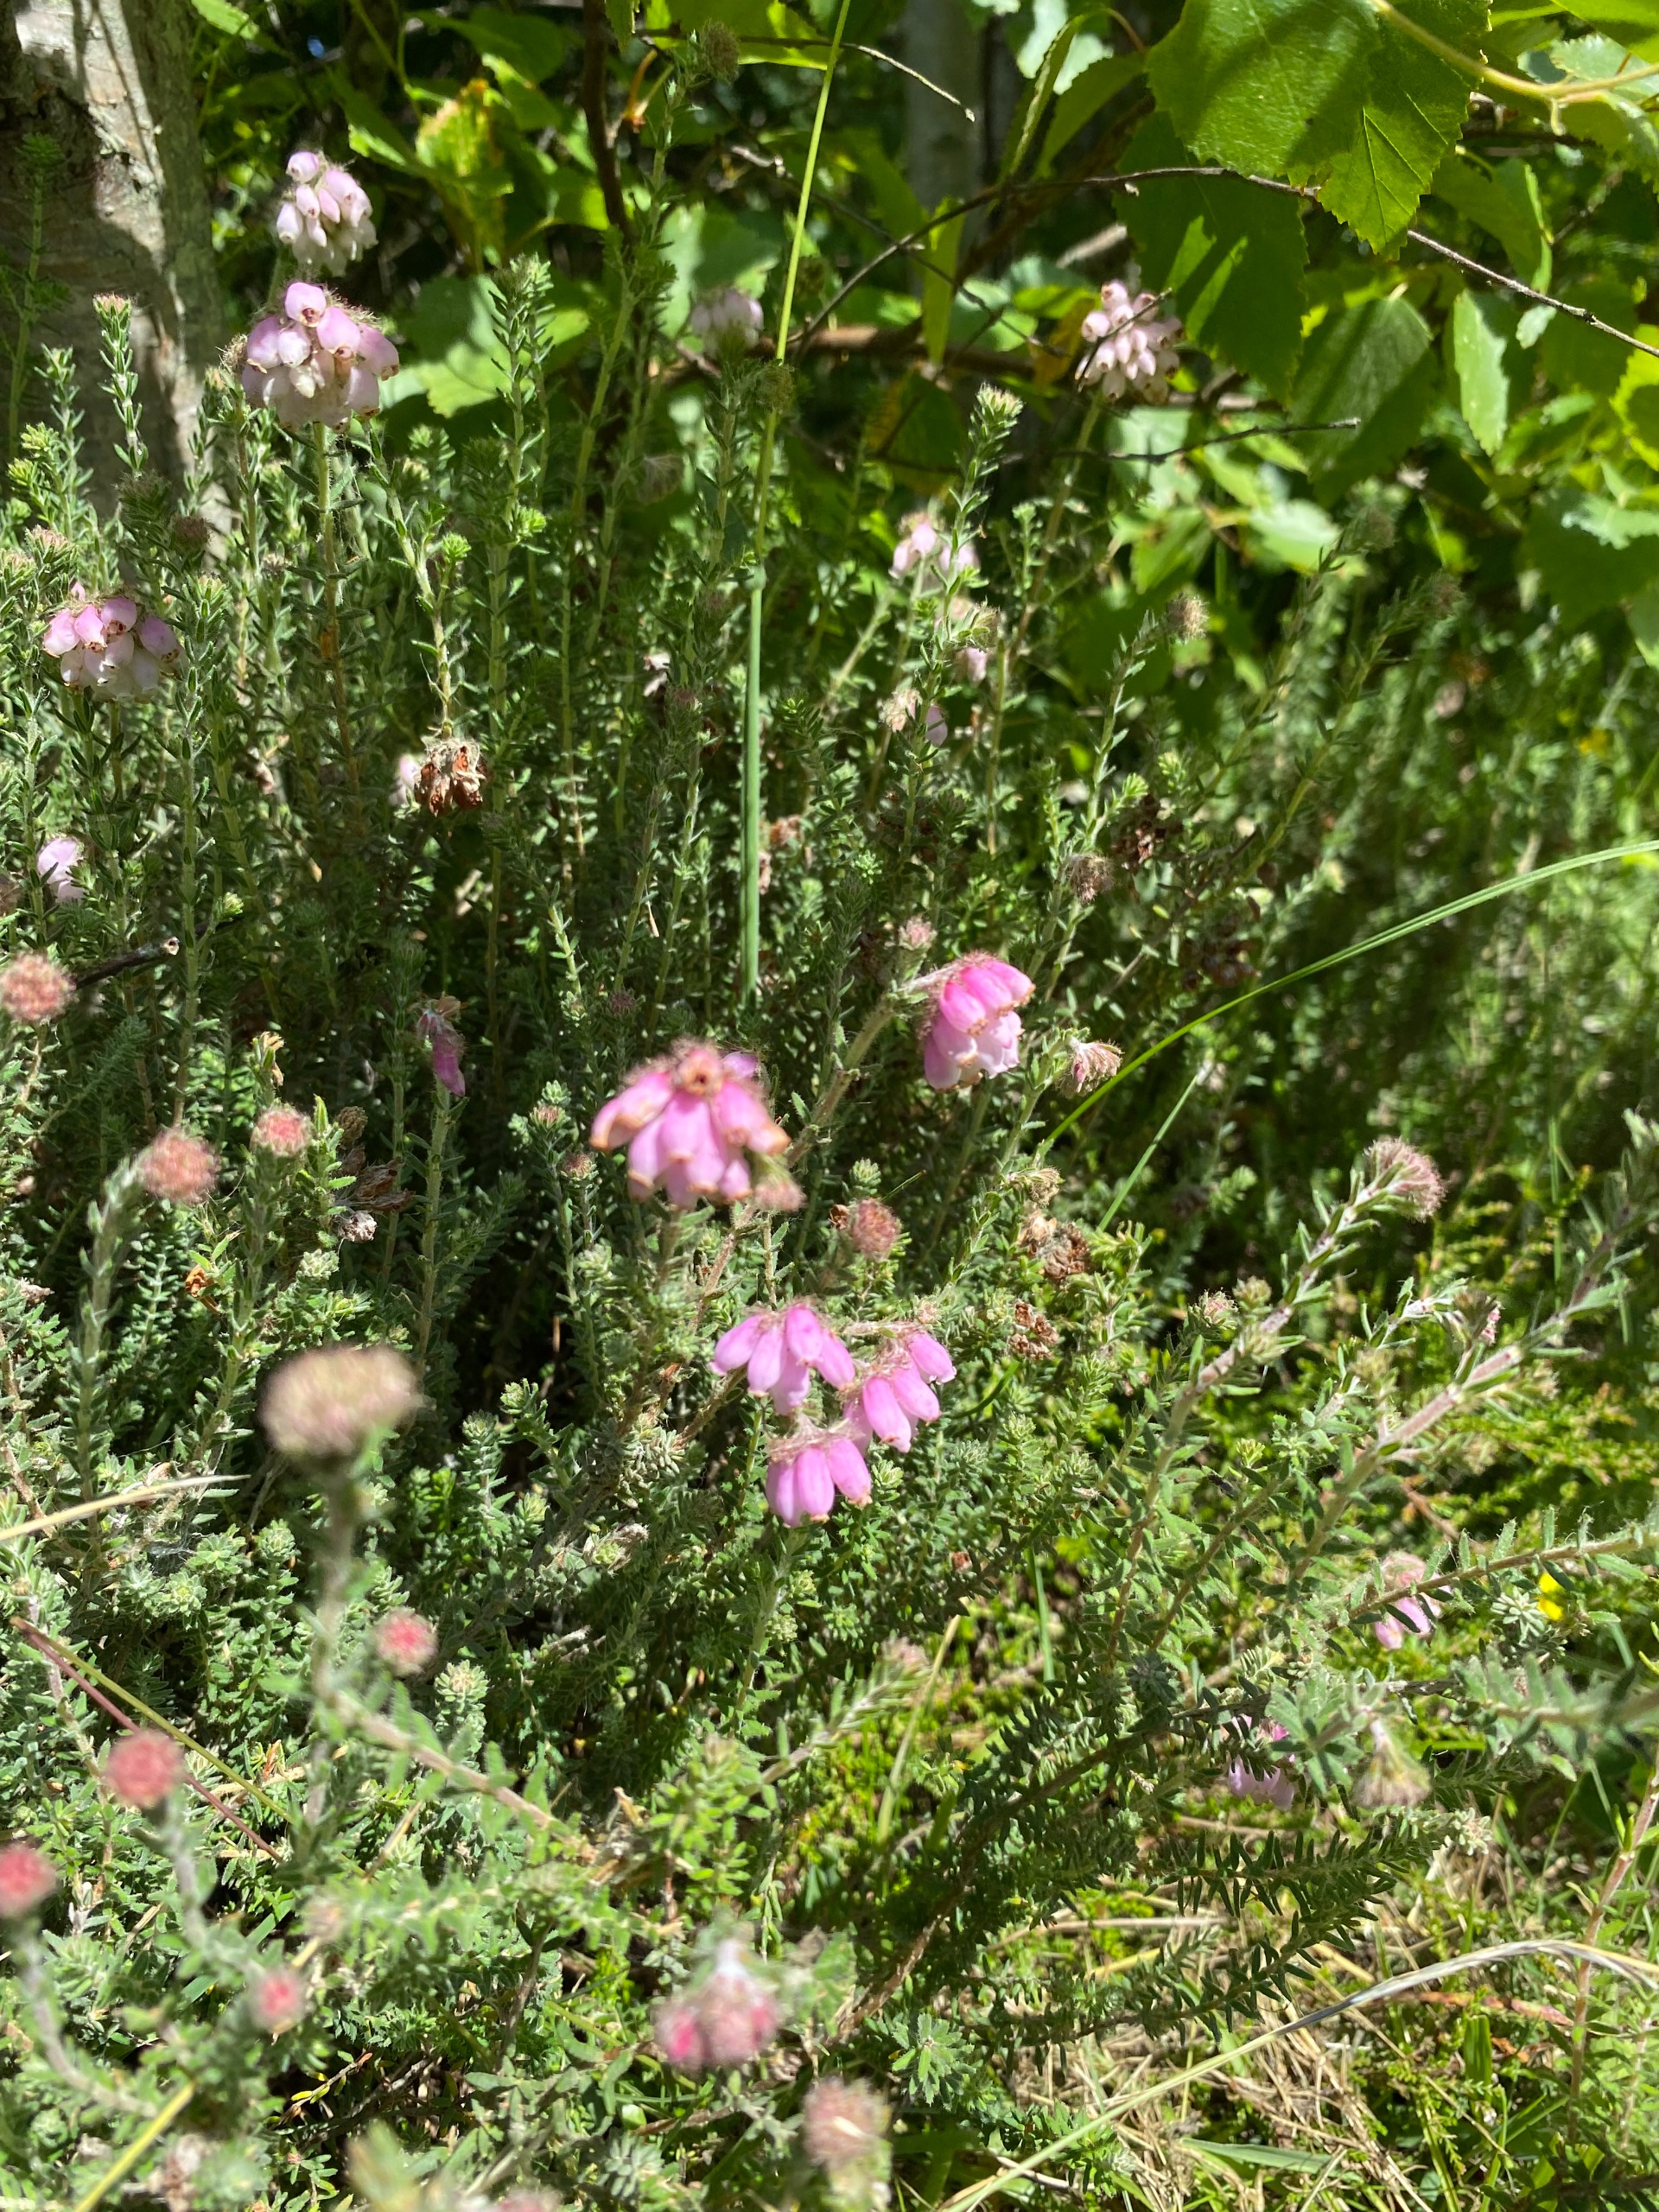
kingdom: Plantae
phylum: Tracheophyta
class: Magnoliopsida
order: Ericales
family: Ericaceae
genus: Erica
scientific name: Erica tetralix
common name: Klokkelyng
